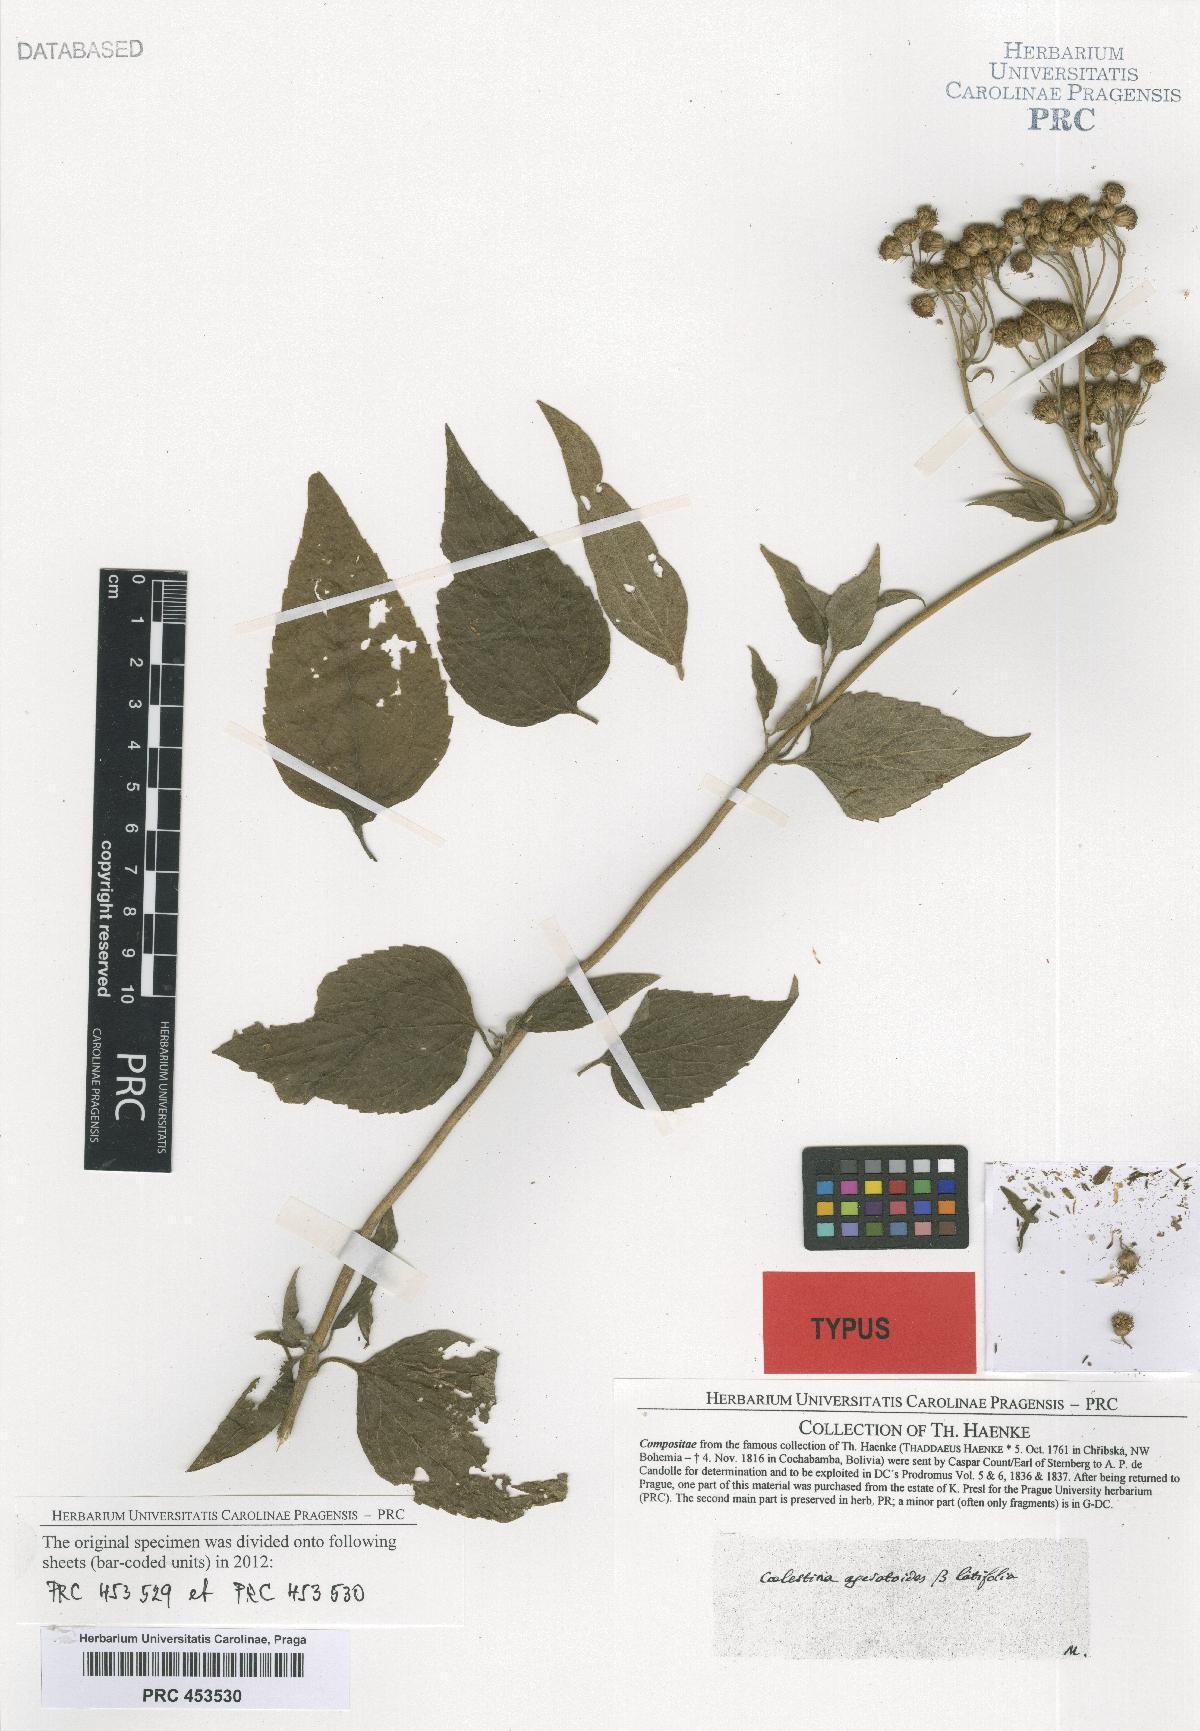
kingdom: Plantae
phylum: Tracheophyta
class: Magnoliopsida
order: Asterales
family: Asteraceae
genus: Ageratum
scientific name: Ageratum corymbosum
